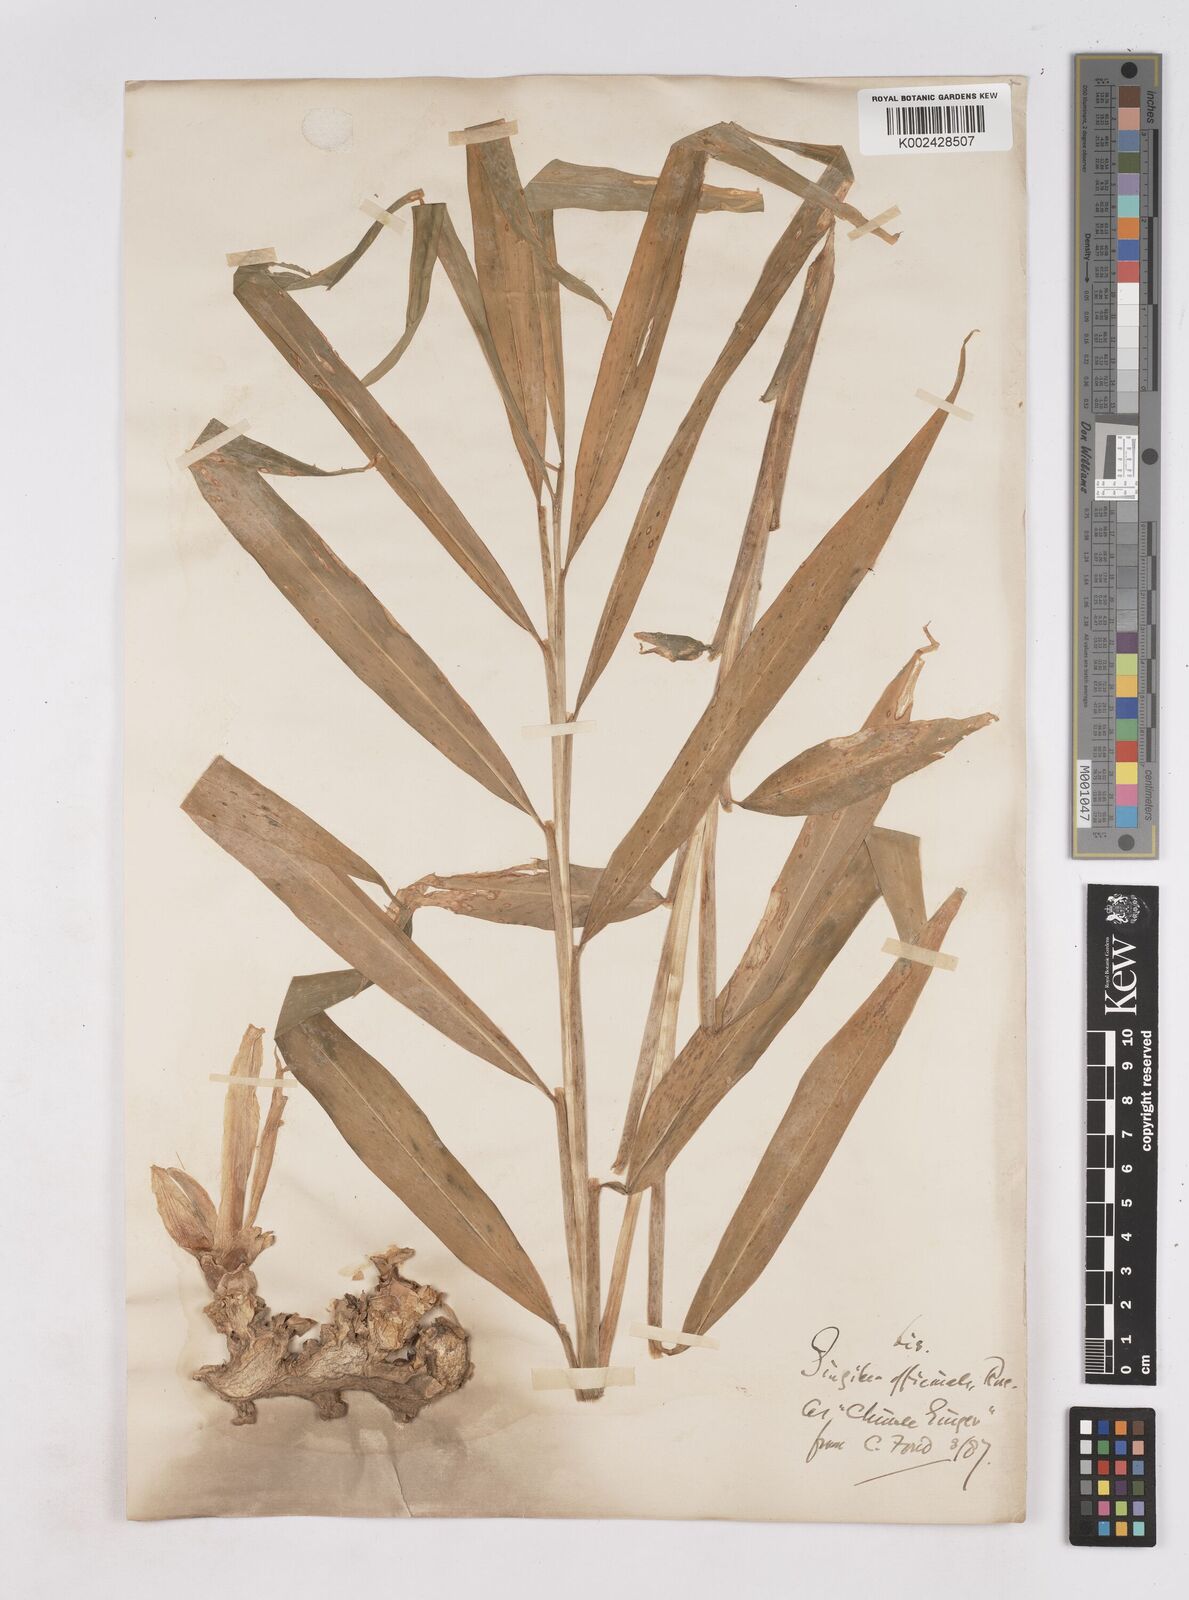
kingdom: Plantae
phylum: Tracheophyta
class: Liliopsida
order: Zingiberales
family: Zingiberaceae
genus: Zingiber
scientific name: Zingiber officinale
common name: Ginger
